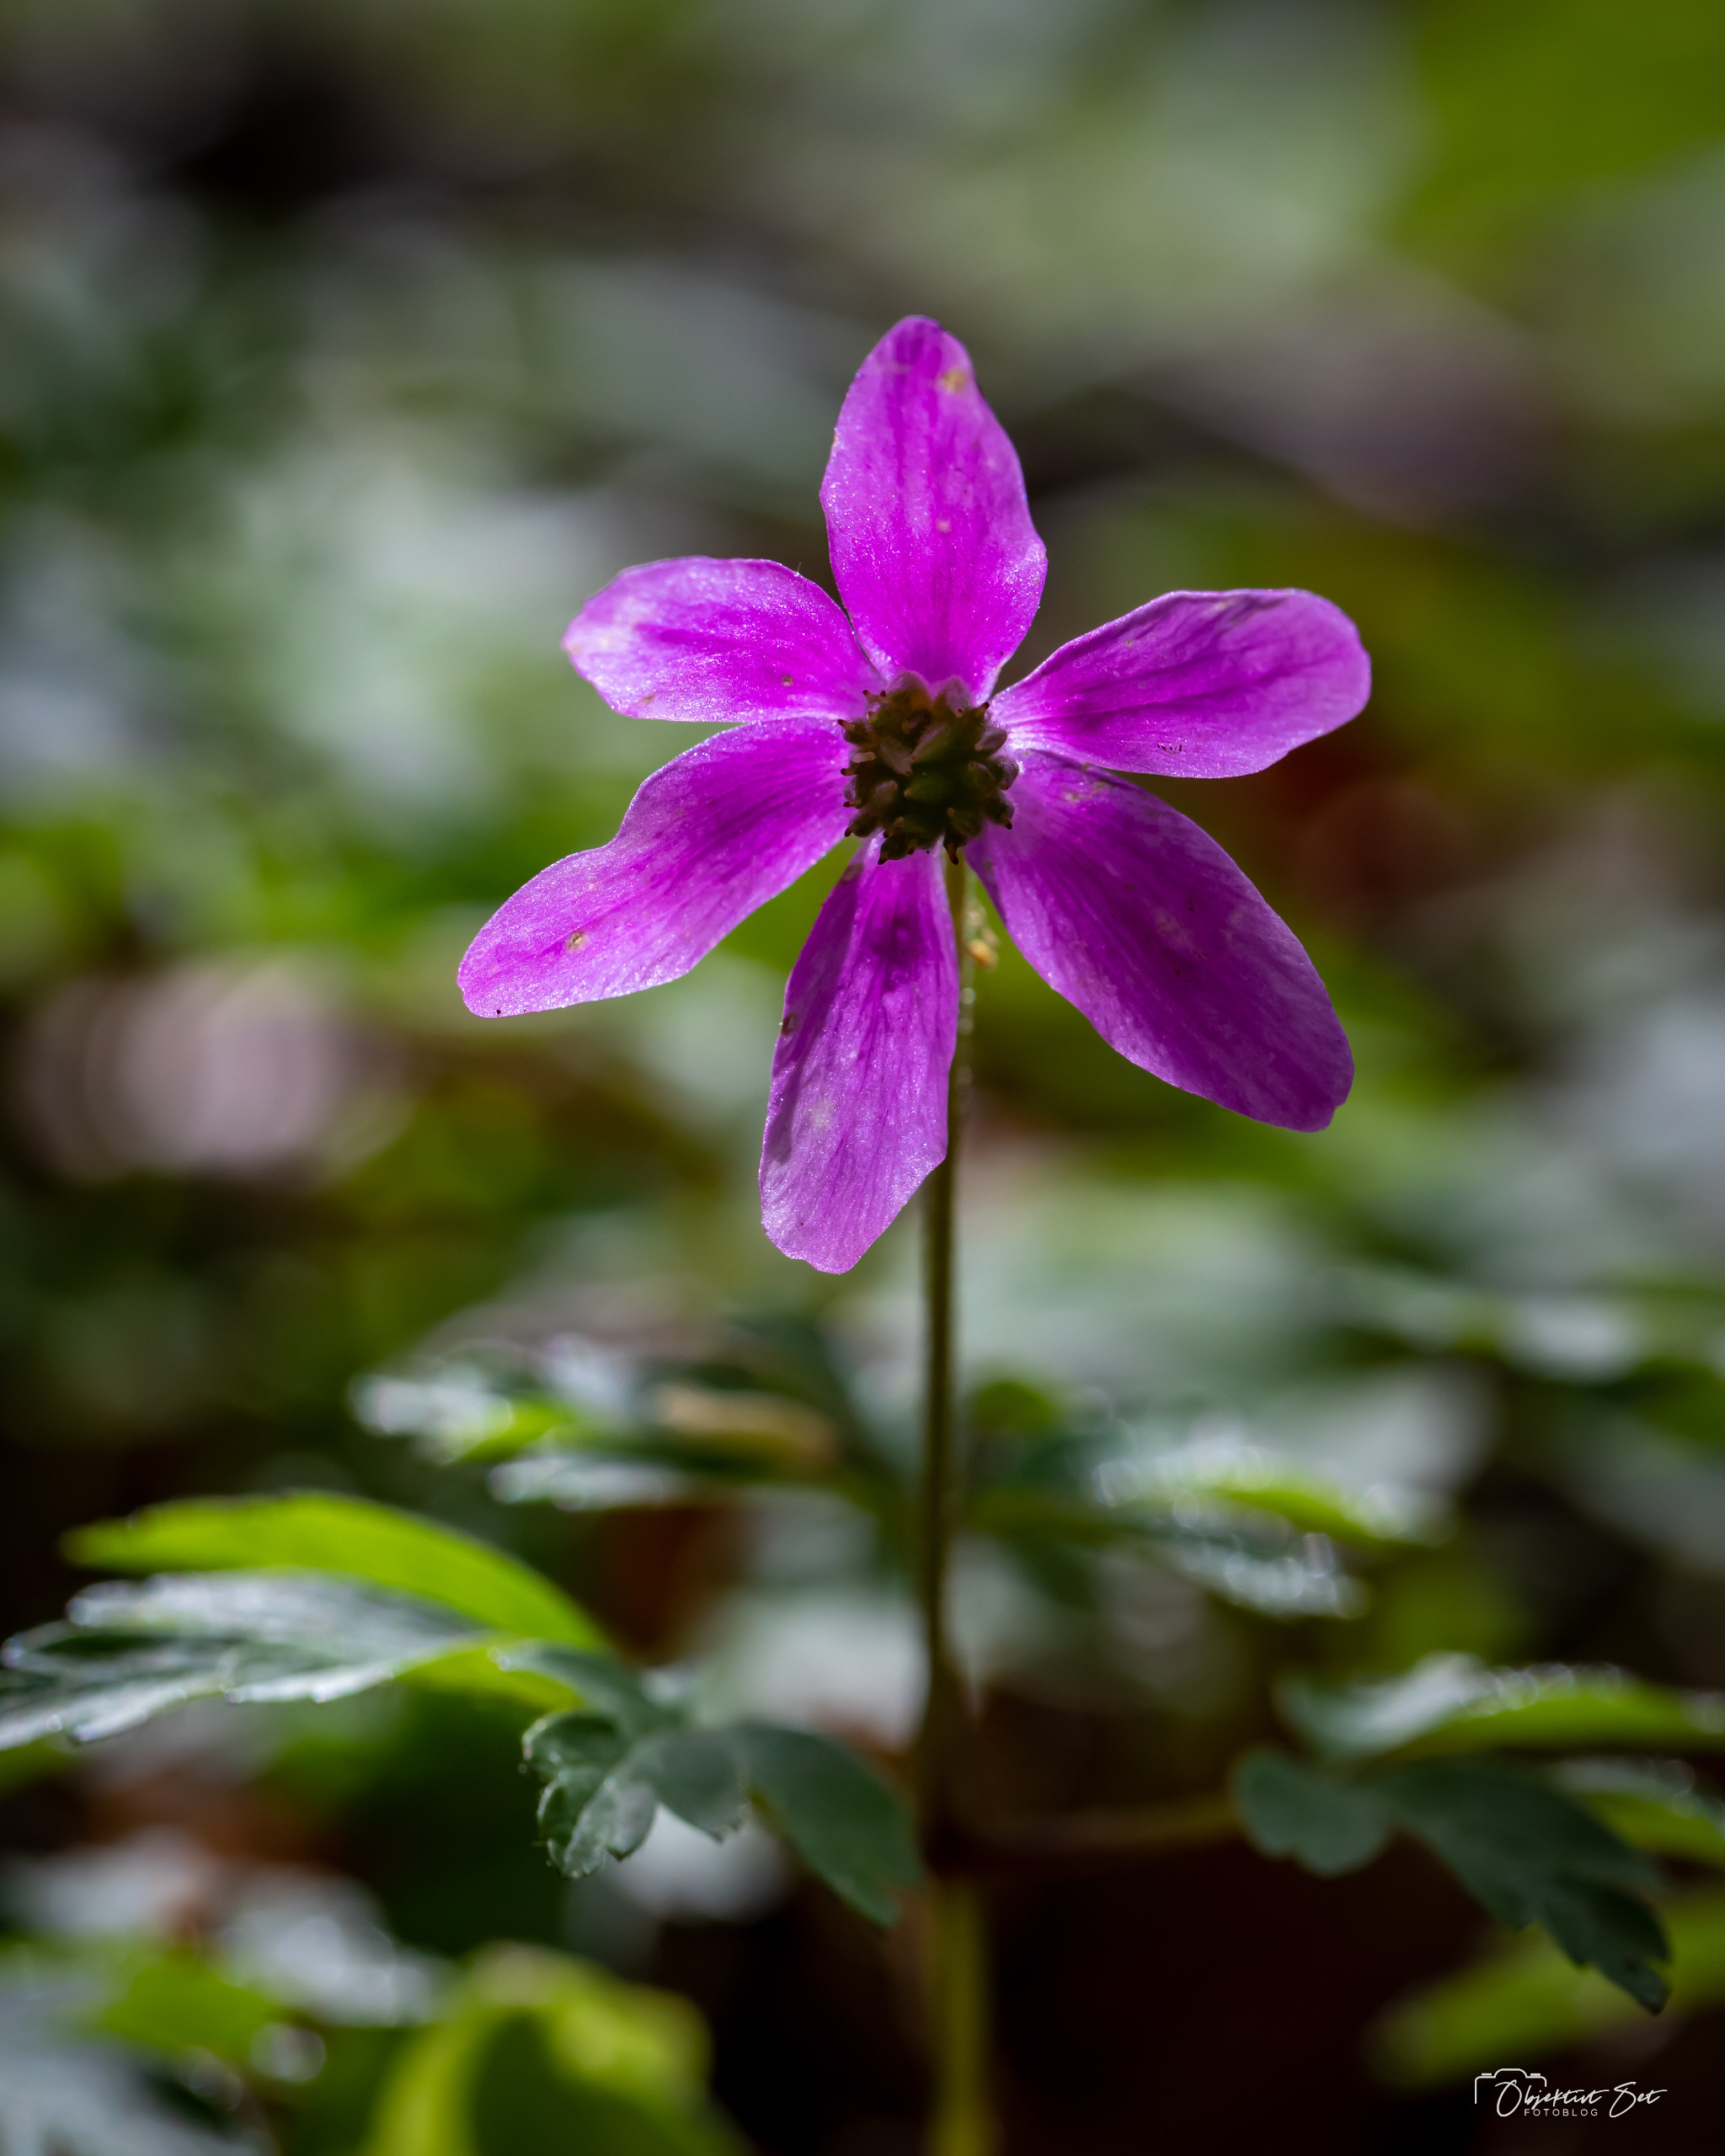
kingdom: Plantae
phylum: Tracheophyta
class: Magnoliopsida
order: Ranunculales
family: Ranunculaceae
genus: Anemone
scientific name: Anemone nemorosa
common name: Hvid anemone
